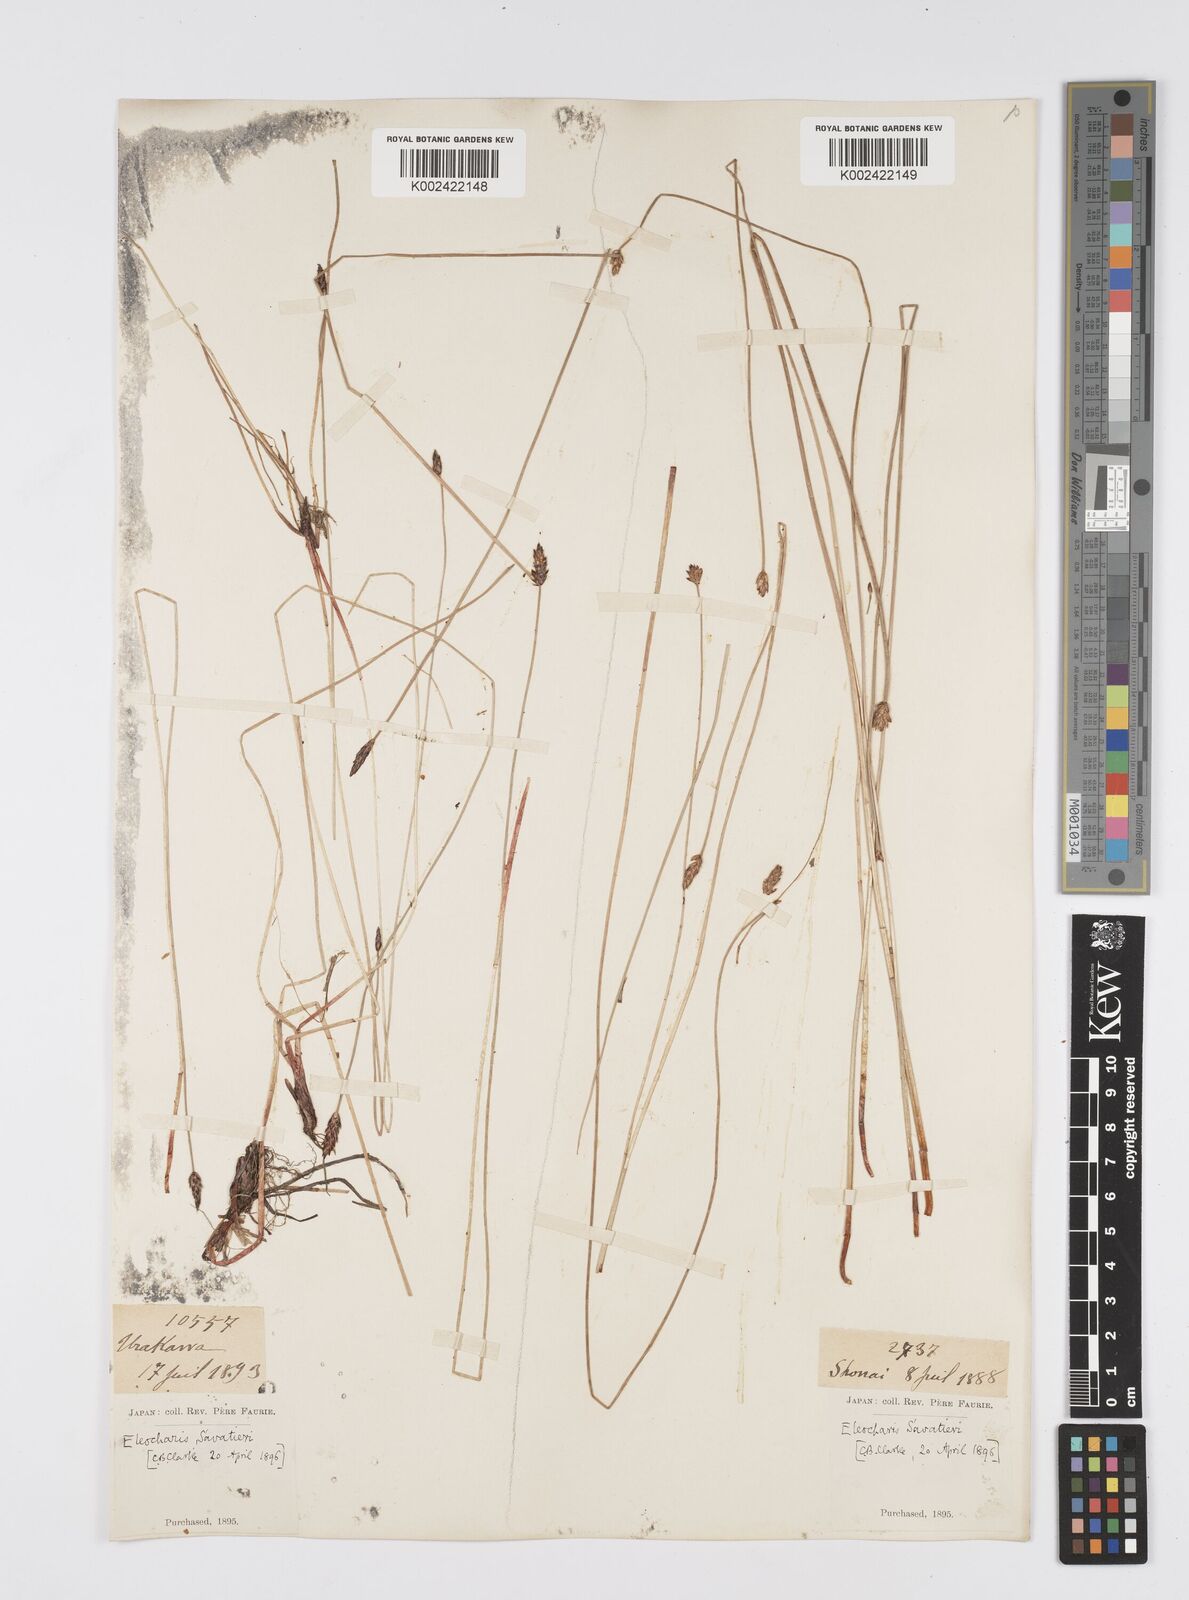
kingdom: Plantae
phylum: Tracheophyta
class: Liliopsida
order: Poales
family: Cyperaceae
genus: Eleocharis
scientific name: Eleocharis kamtschatica
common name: Kamchatka spikerush
